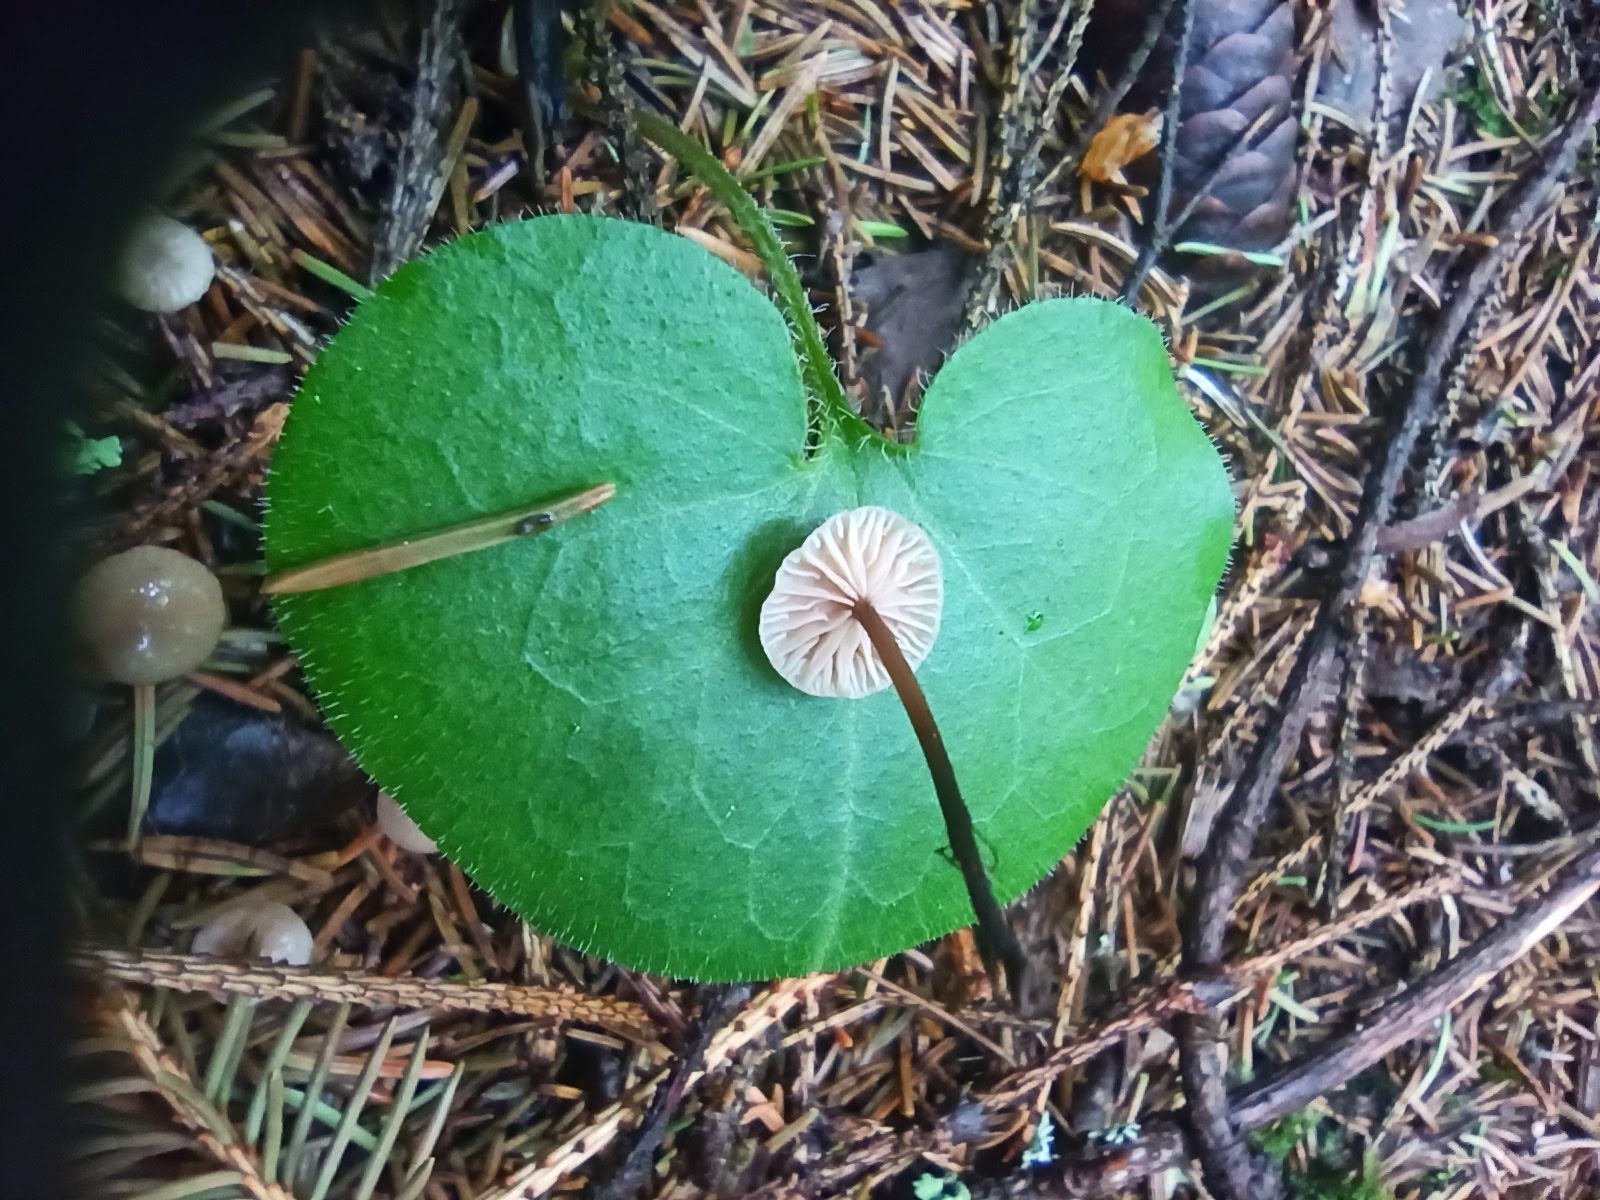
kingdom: Fungi
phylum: Basidiomycota
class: Agaricomycetes
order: Agaricales
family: Omphalotaceae
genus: Paragymnopus
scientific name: Paragymnopus perforans
